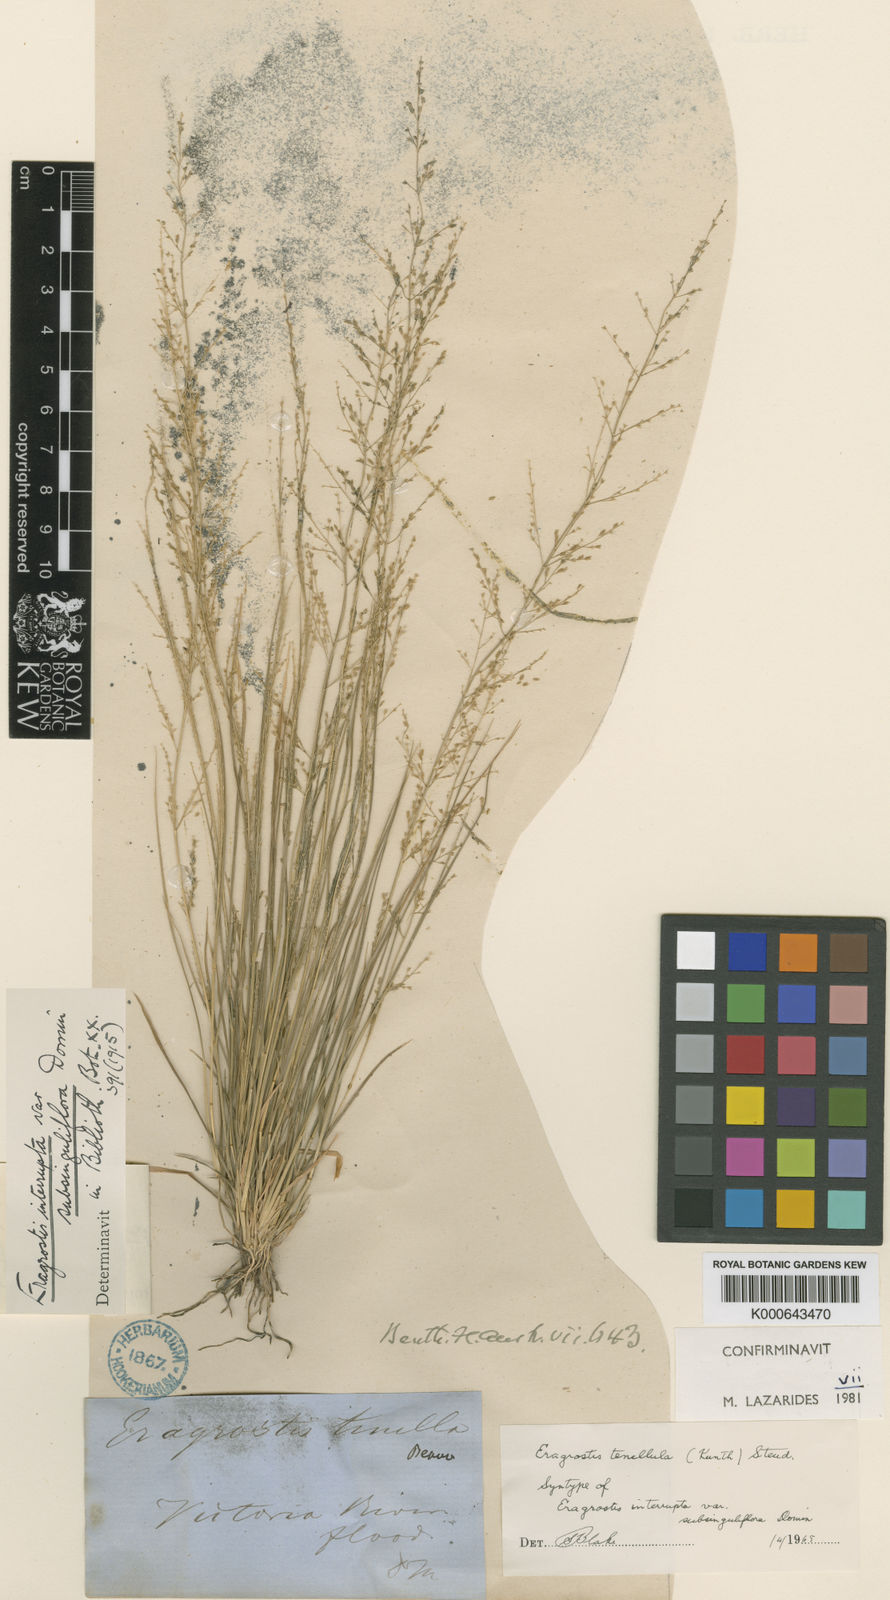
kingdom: Plantae
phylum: Tracheophyta
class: Liliopsida
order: Poales
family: Poaceae
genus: Eragrostis
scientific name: Eragrostis tenellula
